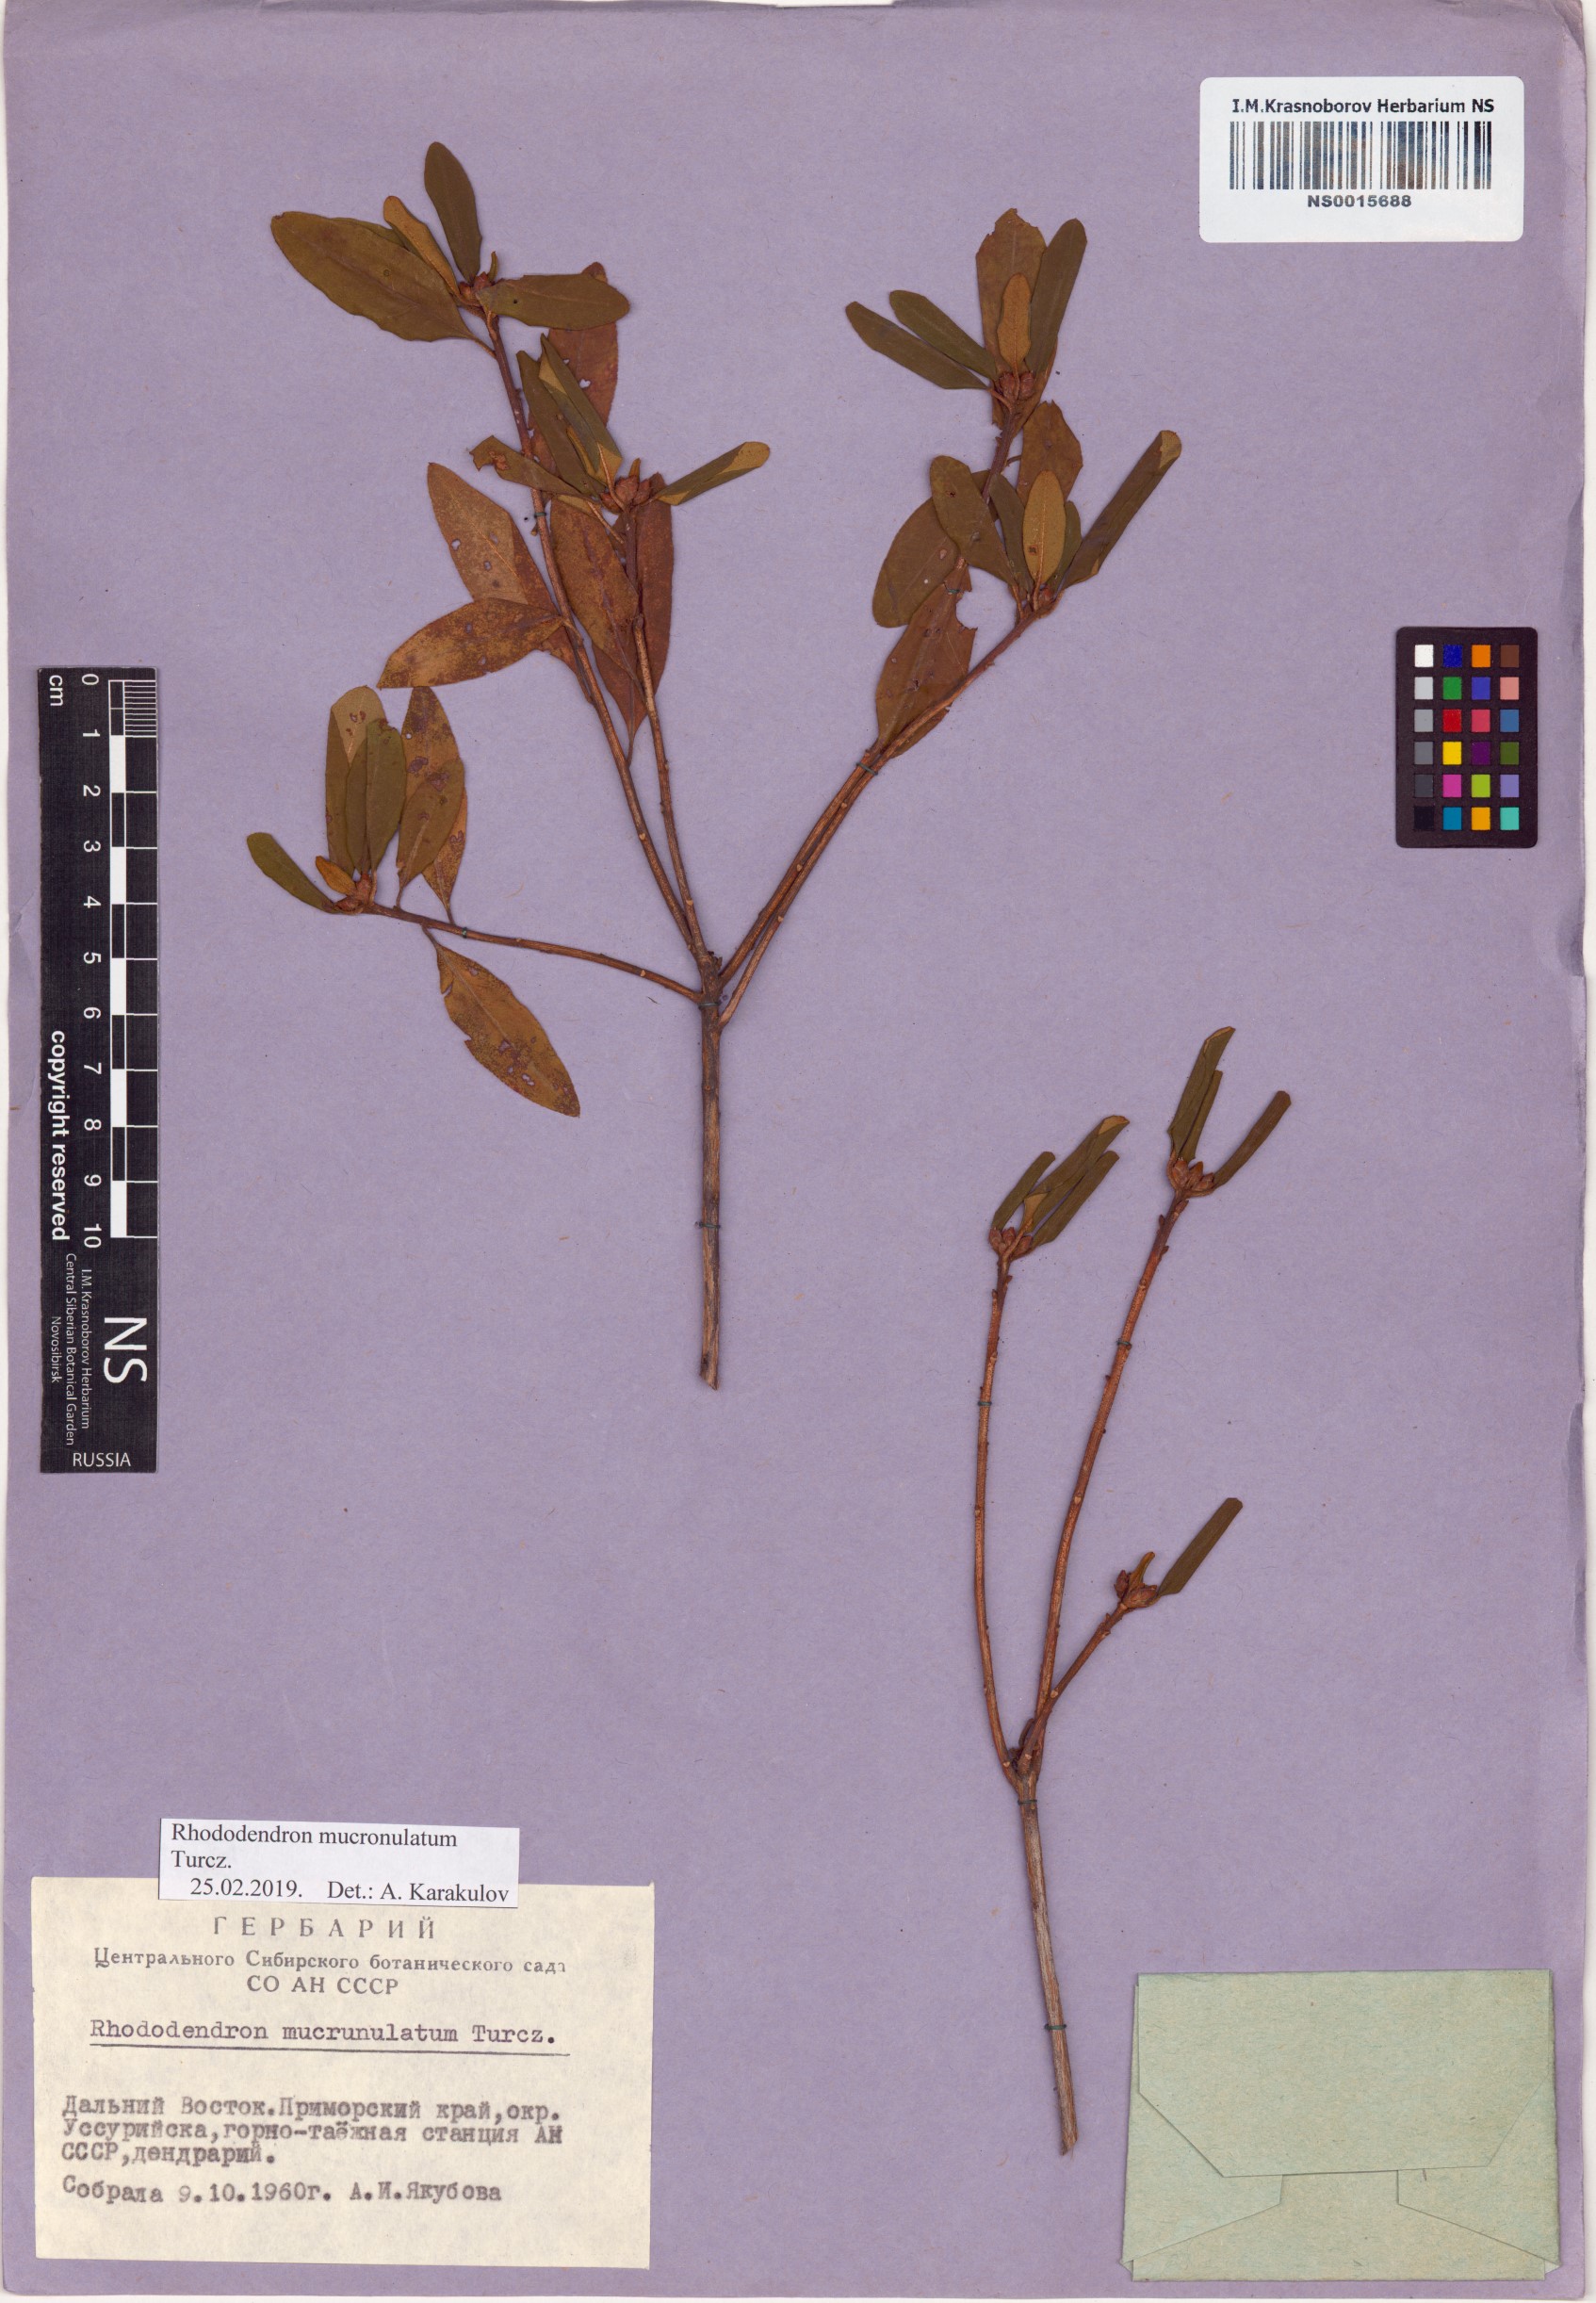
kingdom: Plantae
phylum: Tracheophyta
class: Magnoliopsida
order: Ericales
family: Ericaceae
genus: Rhododendron
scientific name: Rhododendron mucronulatum
